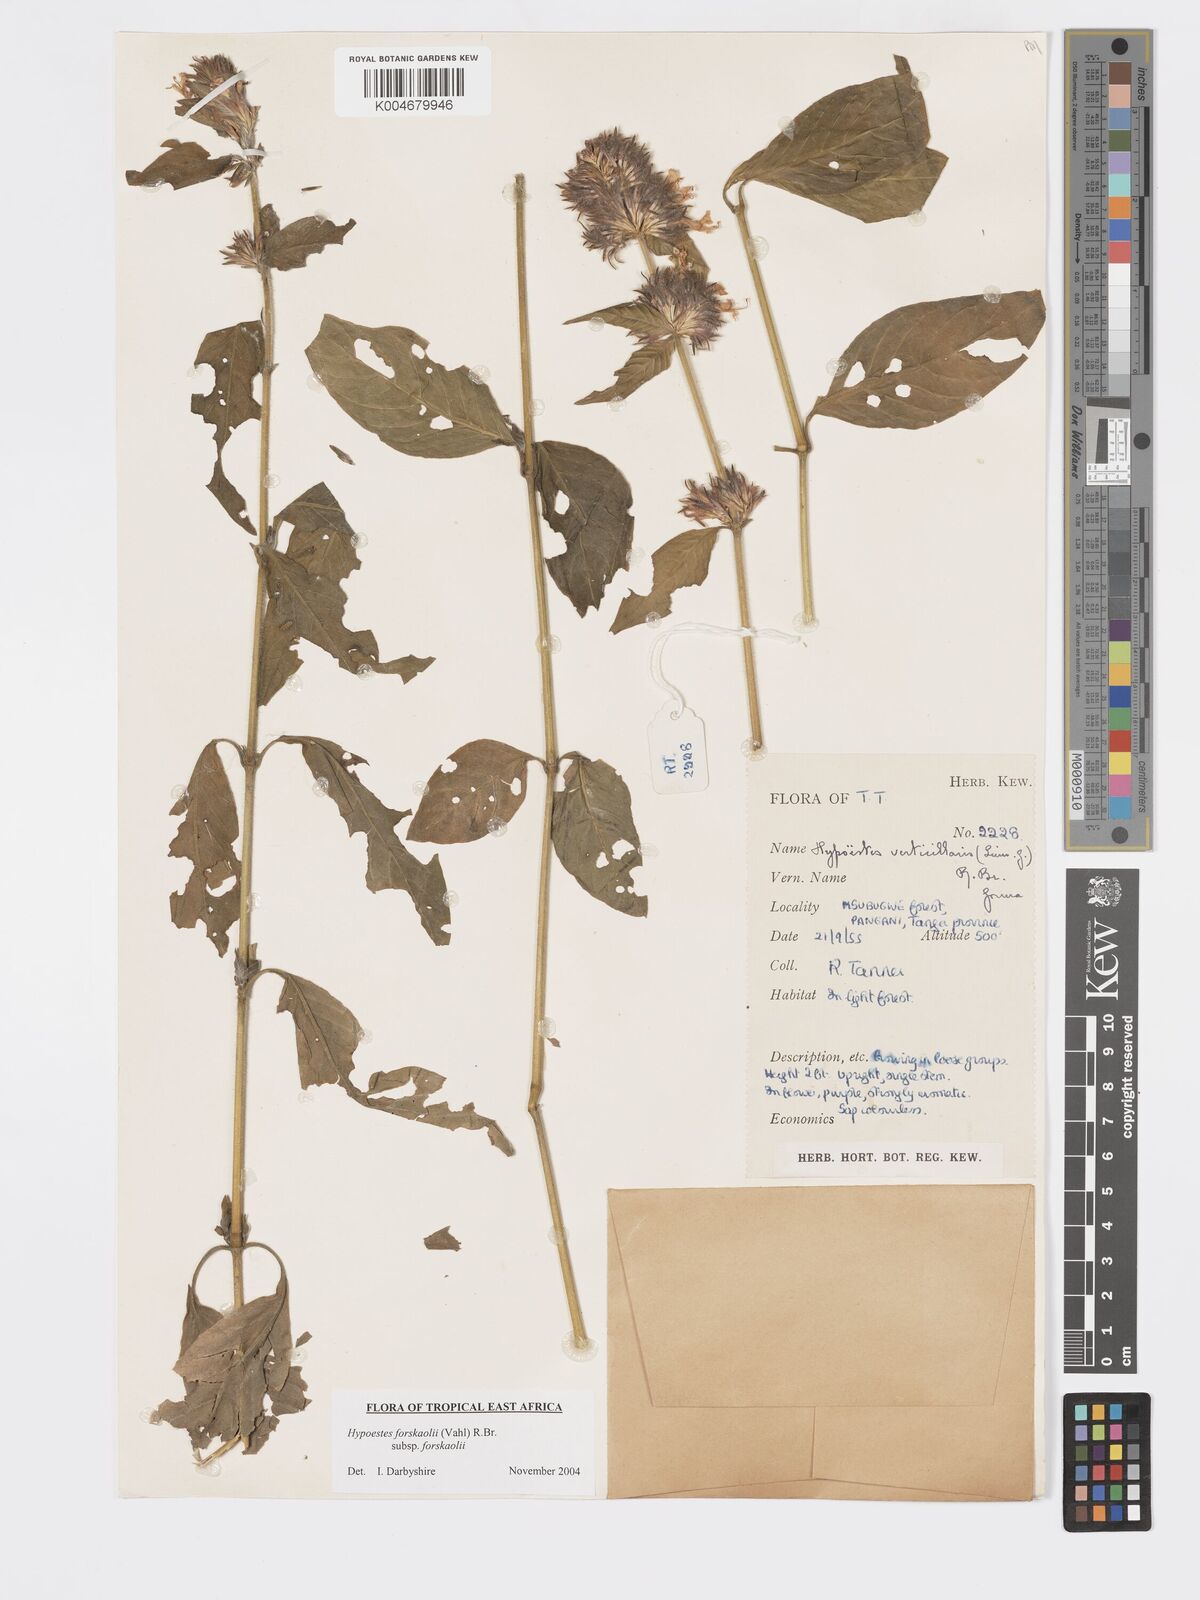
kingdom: Plantae
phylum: Tracheophyta
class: Magnoliopsida
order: Lamiales
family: Acanthaceae
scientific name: Acanthaceae
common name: Acanthaceae
